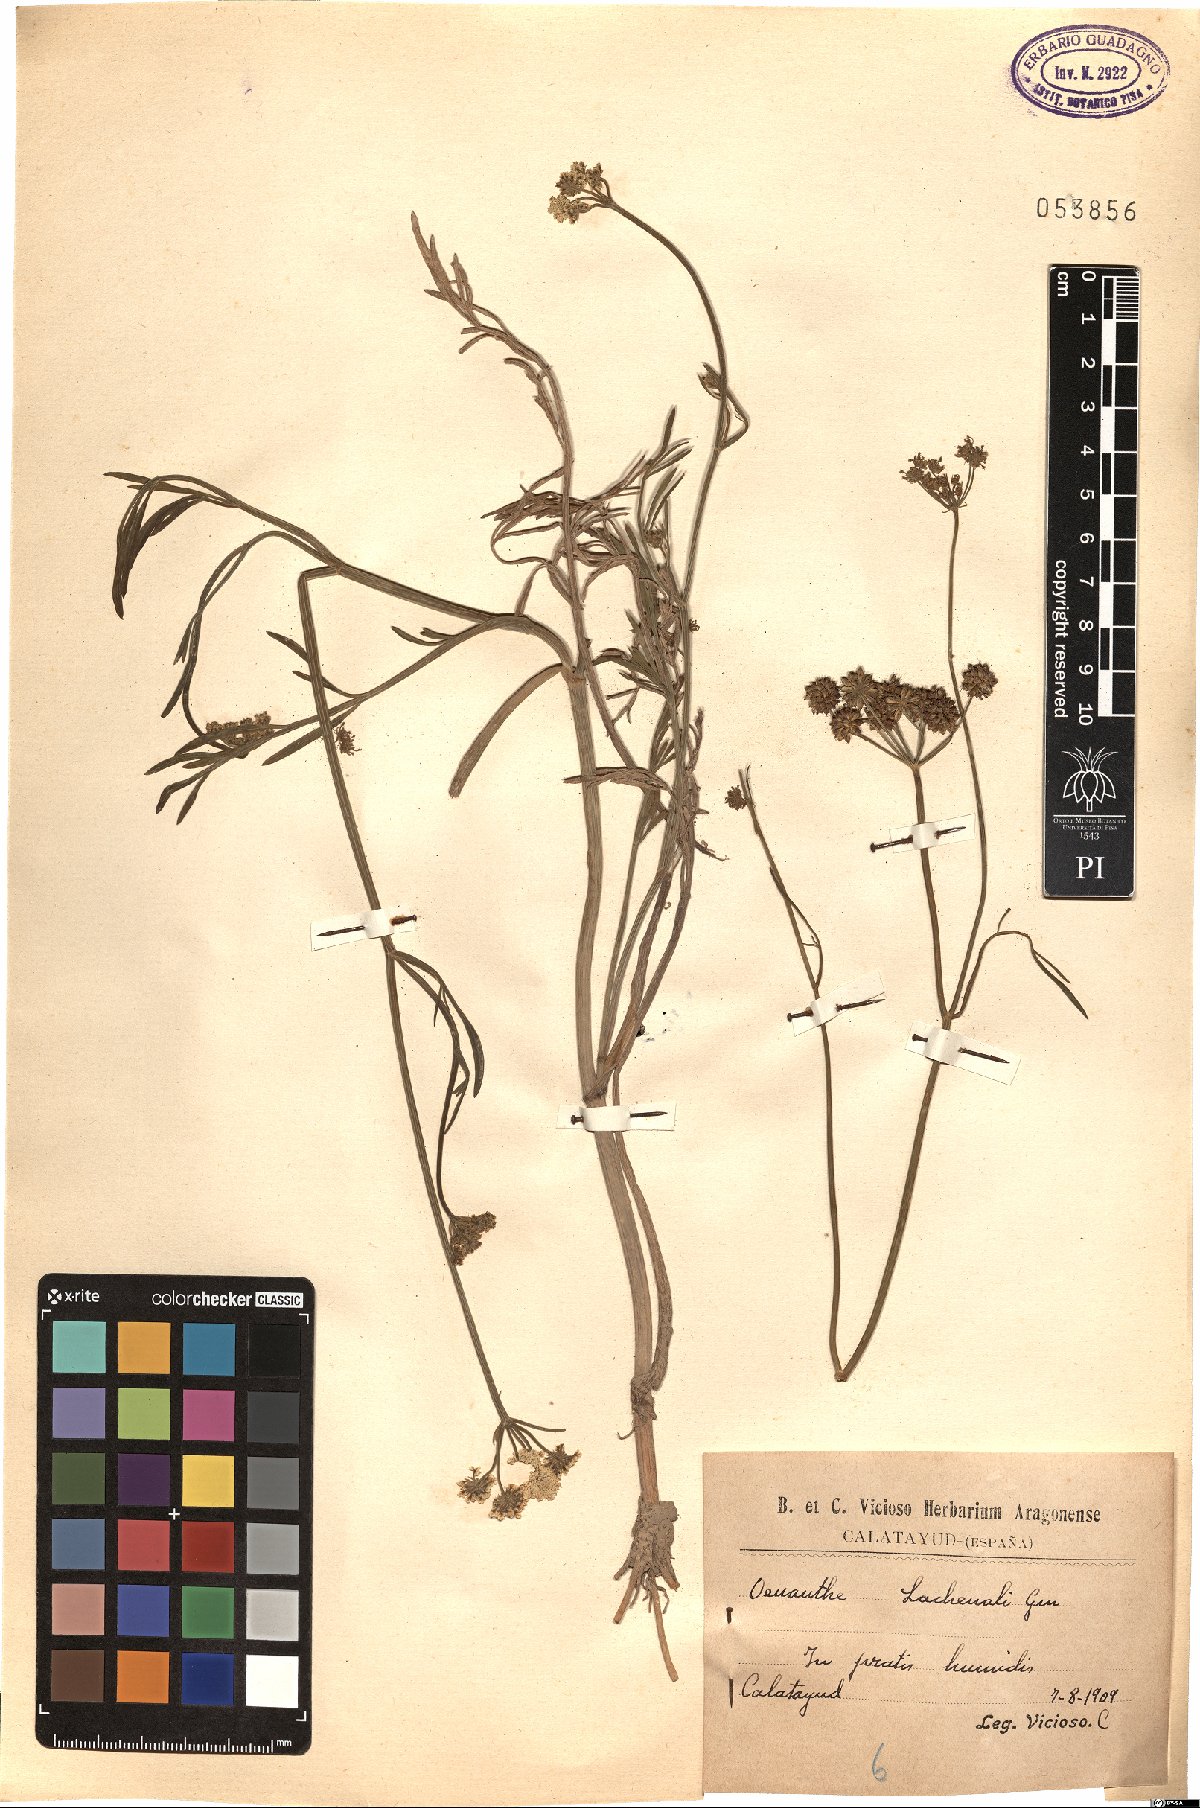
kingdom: Plantae
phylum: Tracheophyta
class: Magnoliopsida
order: Apiales
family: Apiaceae
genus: Oenanthe
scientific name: Oenanthe lachenalii
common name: Parsley water-dropwort
